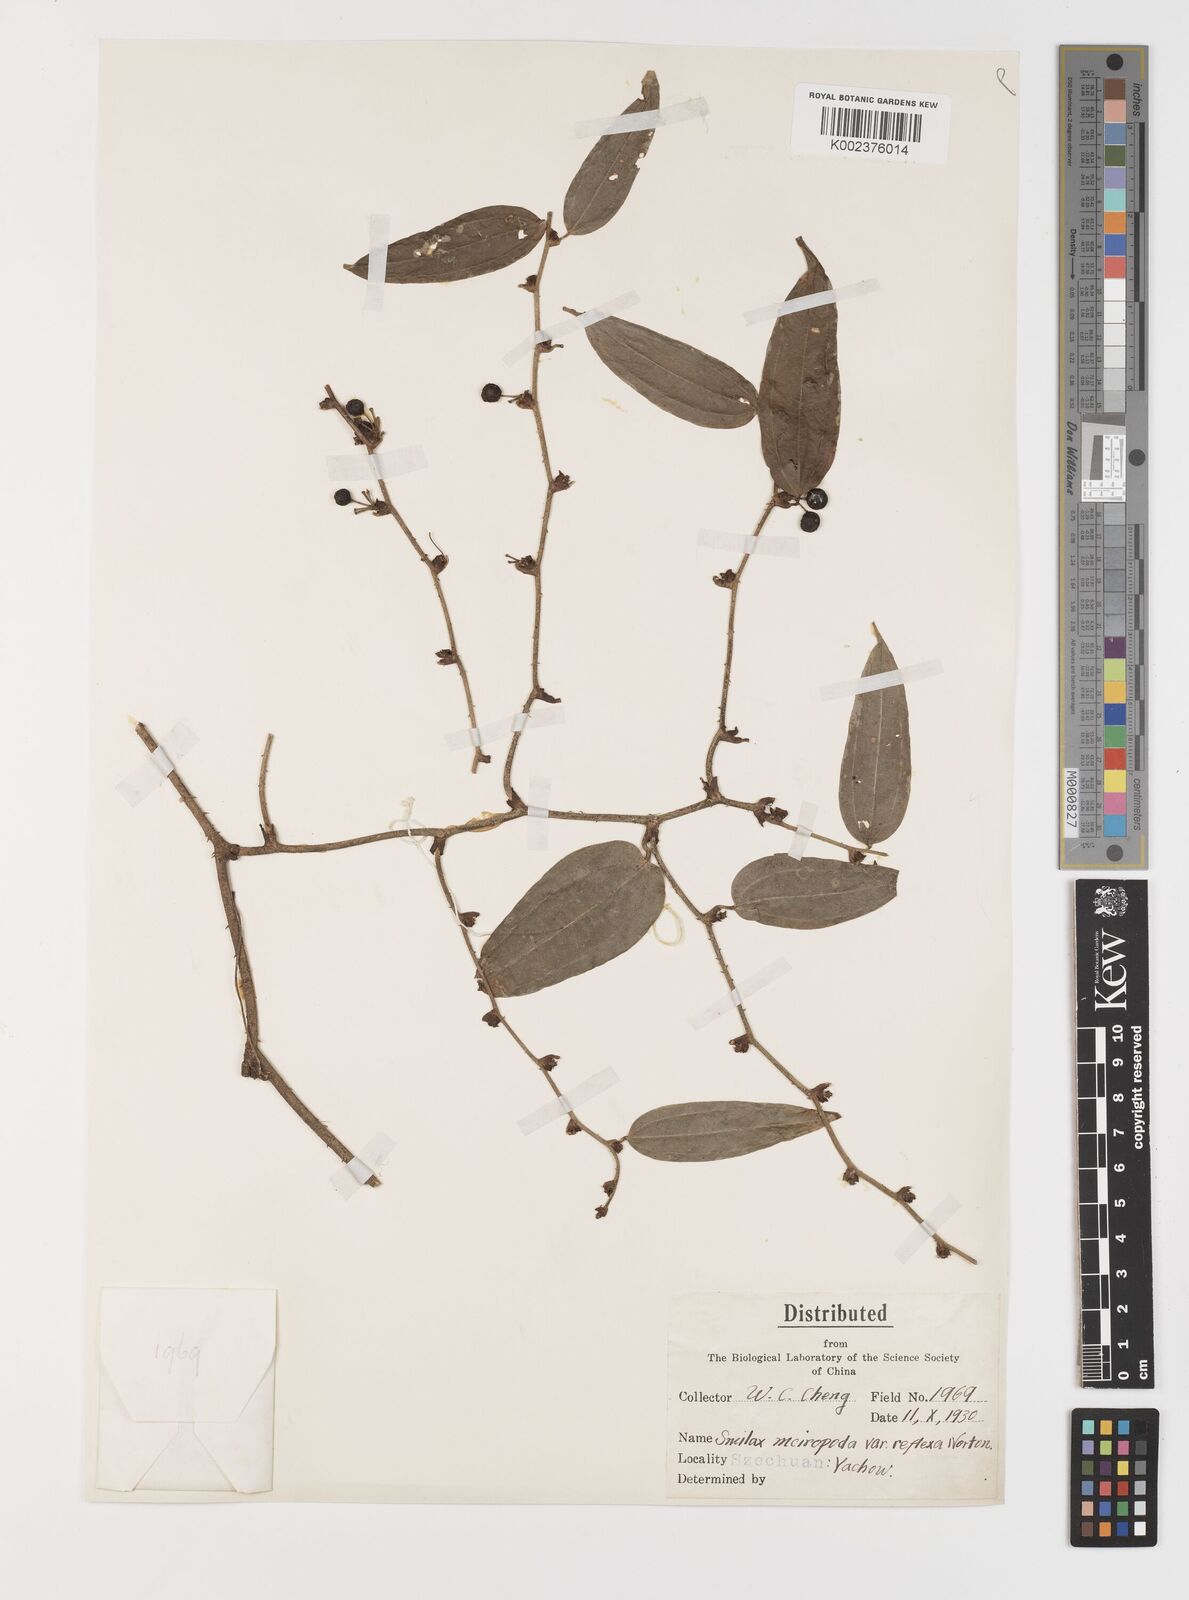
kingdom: Plantae
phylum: Tracheophyta
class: Liliopsida
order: Liliales
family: Smilacaceae
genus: Smilax
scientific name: Smilax chapaensis
